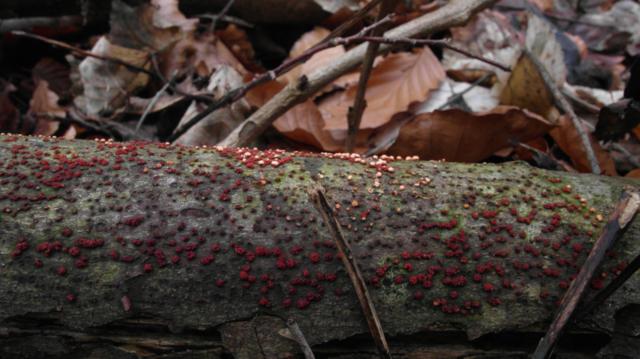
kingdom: Fungi
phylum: Ascomycota
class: Sordariomycetes
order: Hypocreales
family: Nectriaceae
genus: Nectria
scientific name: Nectria cinnabarina
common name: almindelig cinnobersvamp
